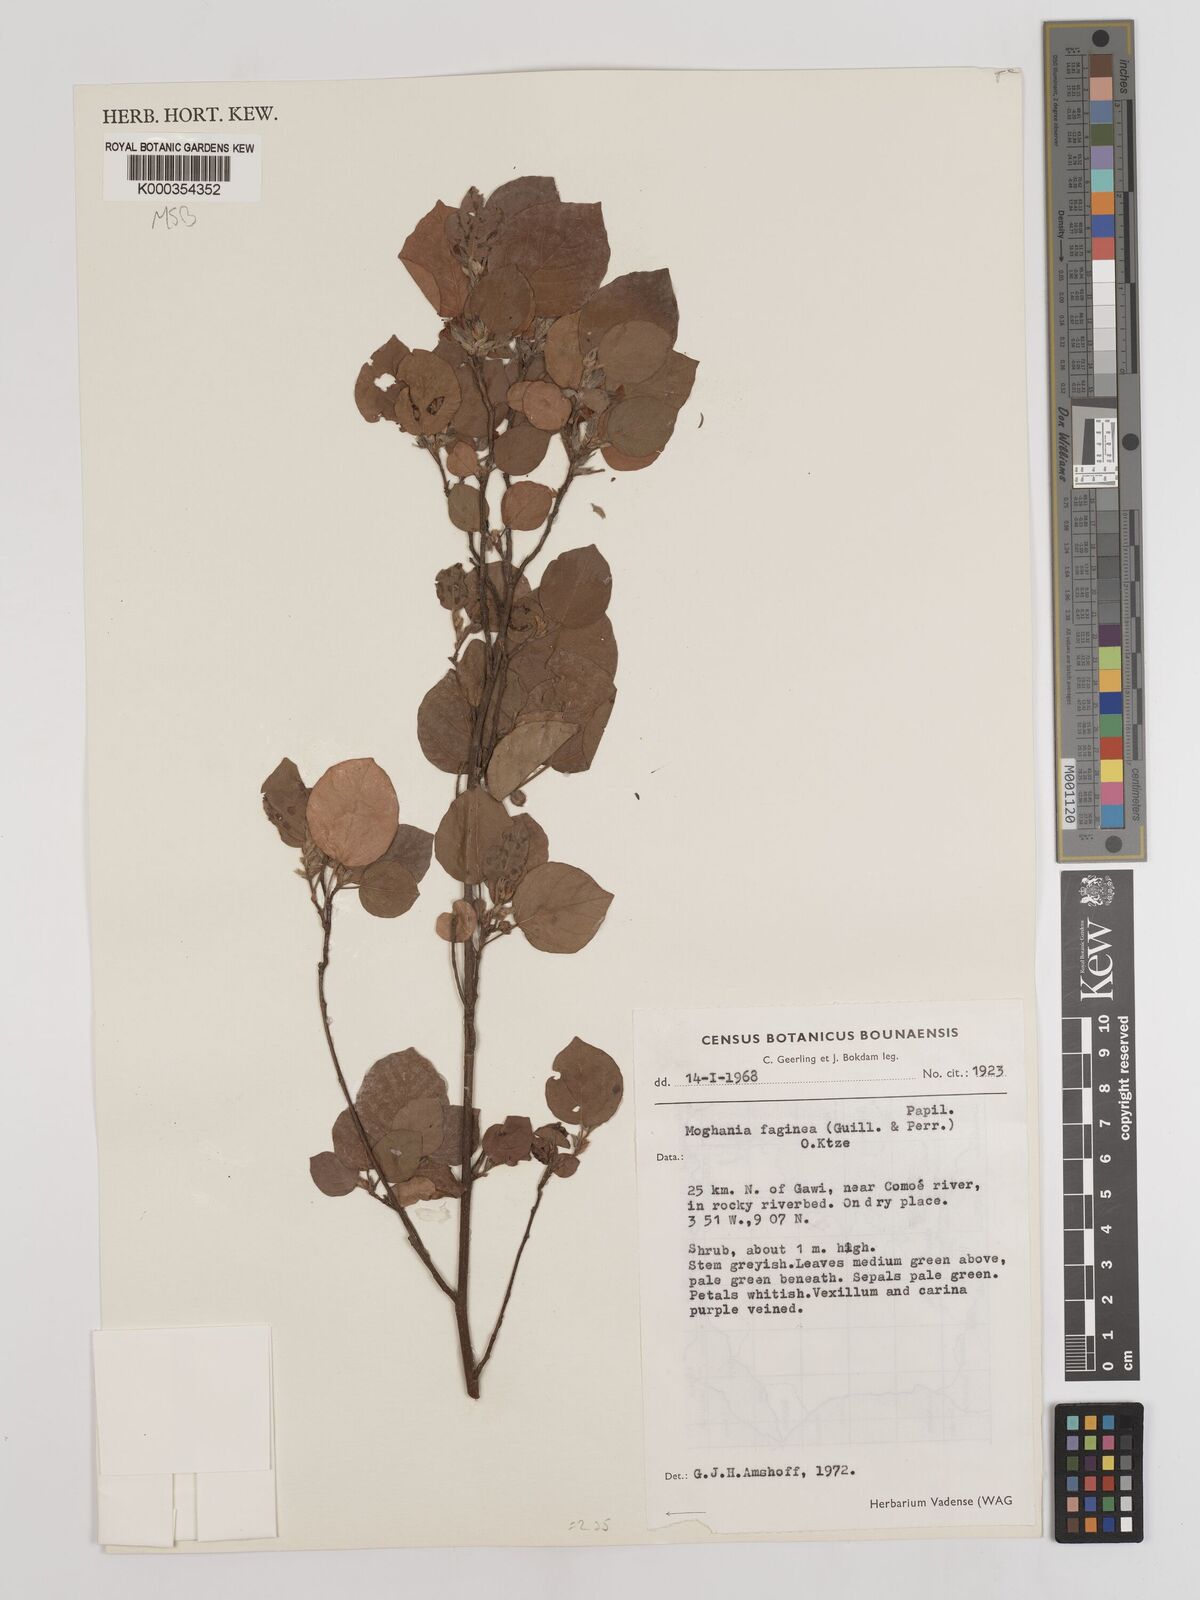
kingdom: Plantae
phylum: Tracheophyta
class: Magnoliopsida
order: Fabales
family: Fabaceae
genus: Flemingia
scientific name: Flemingia faginea
